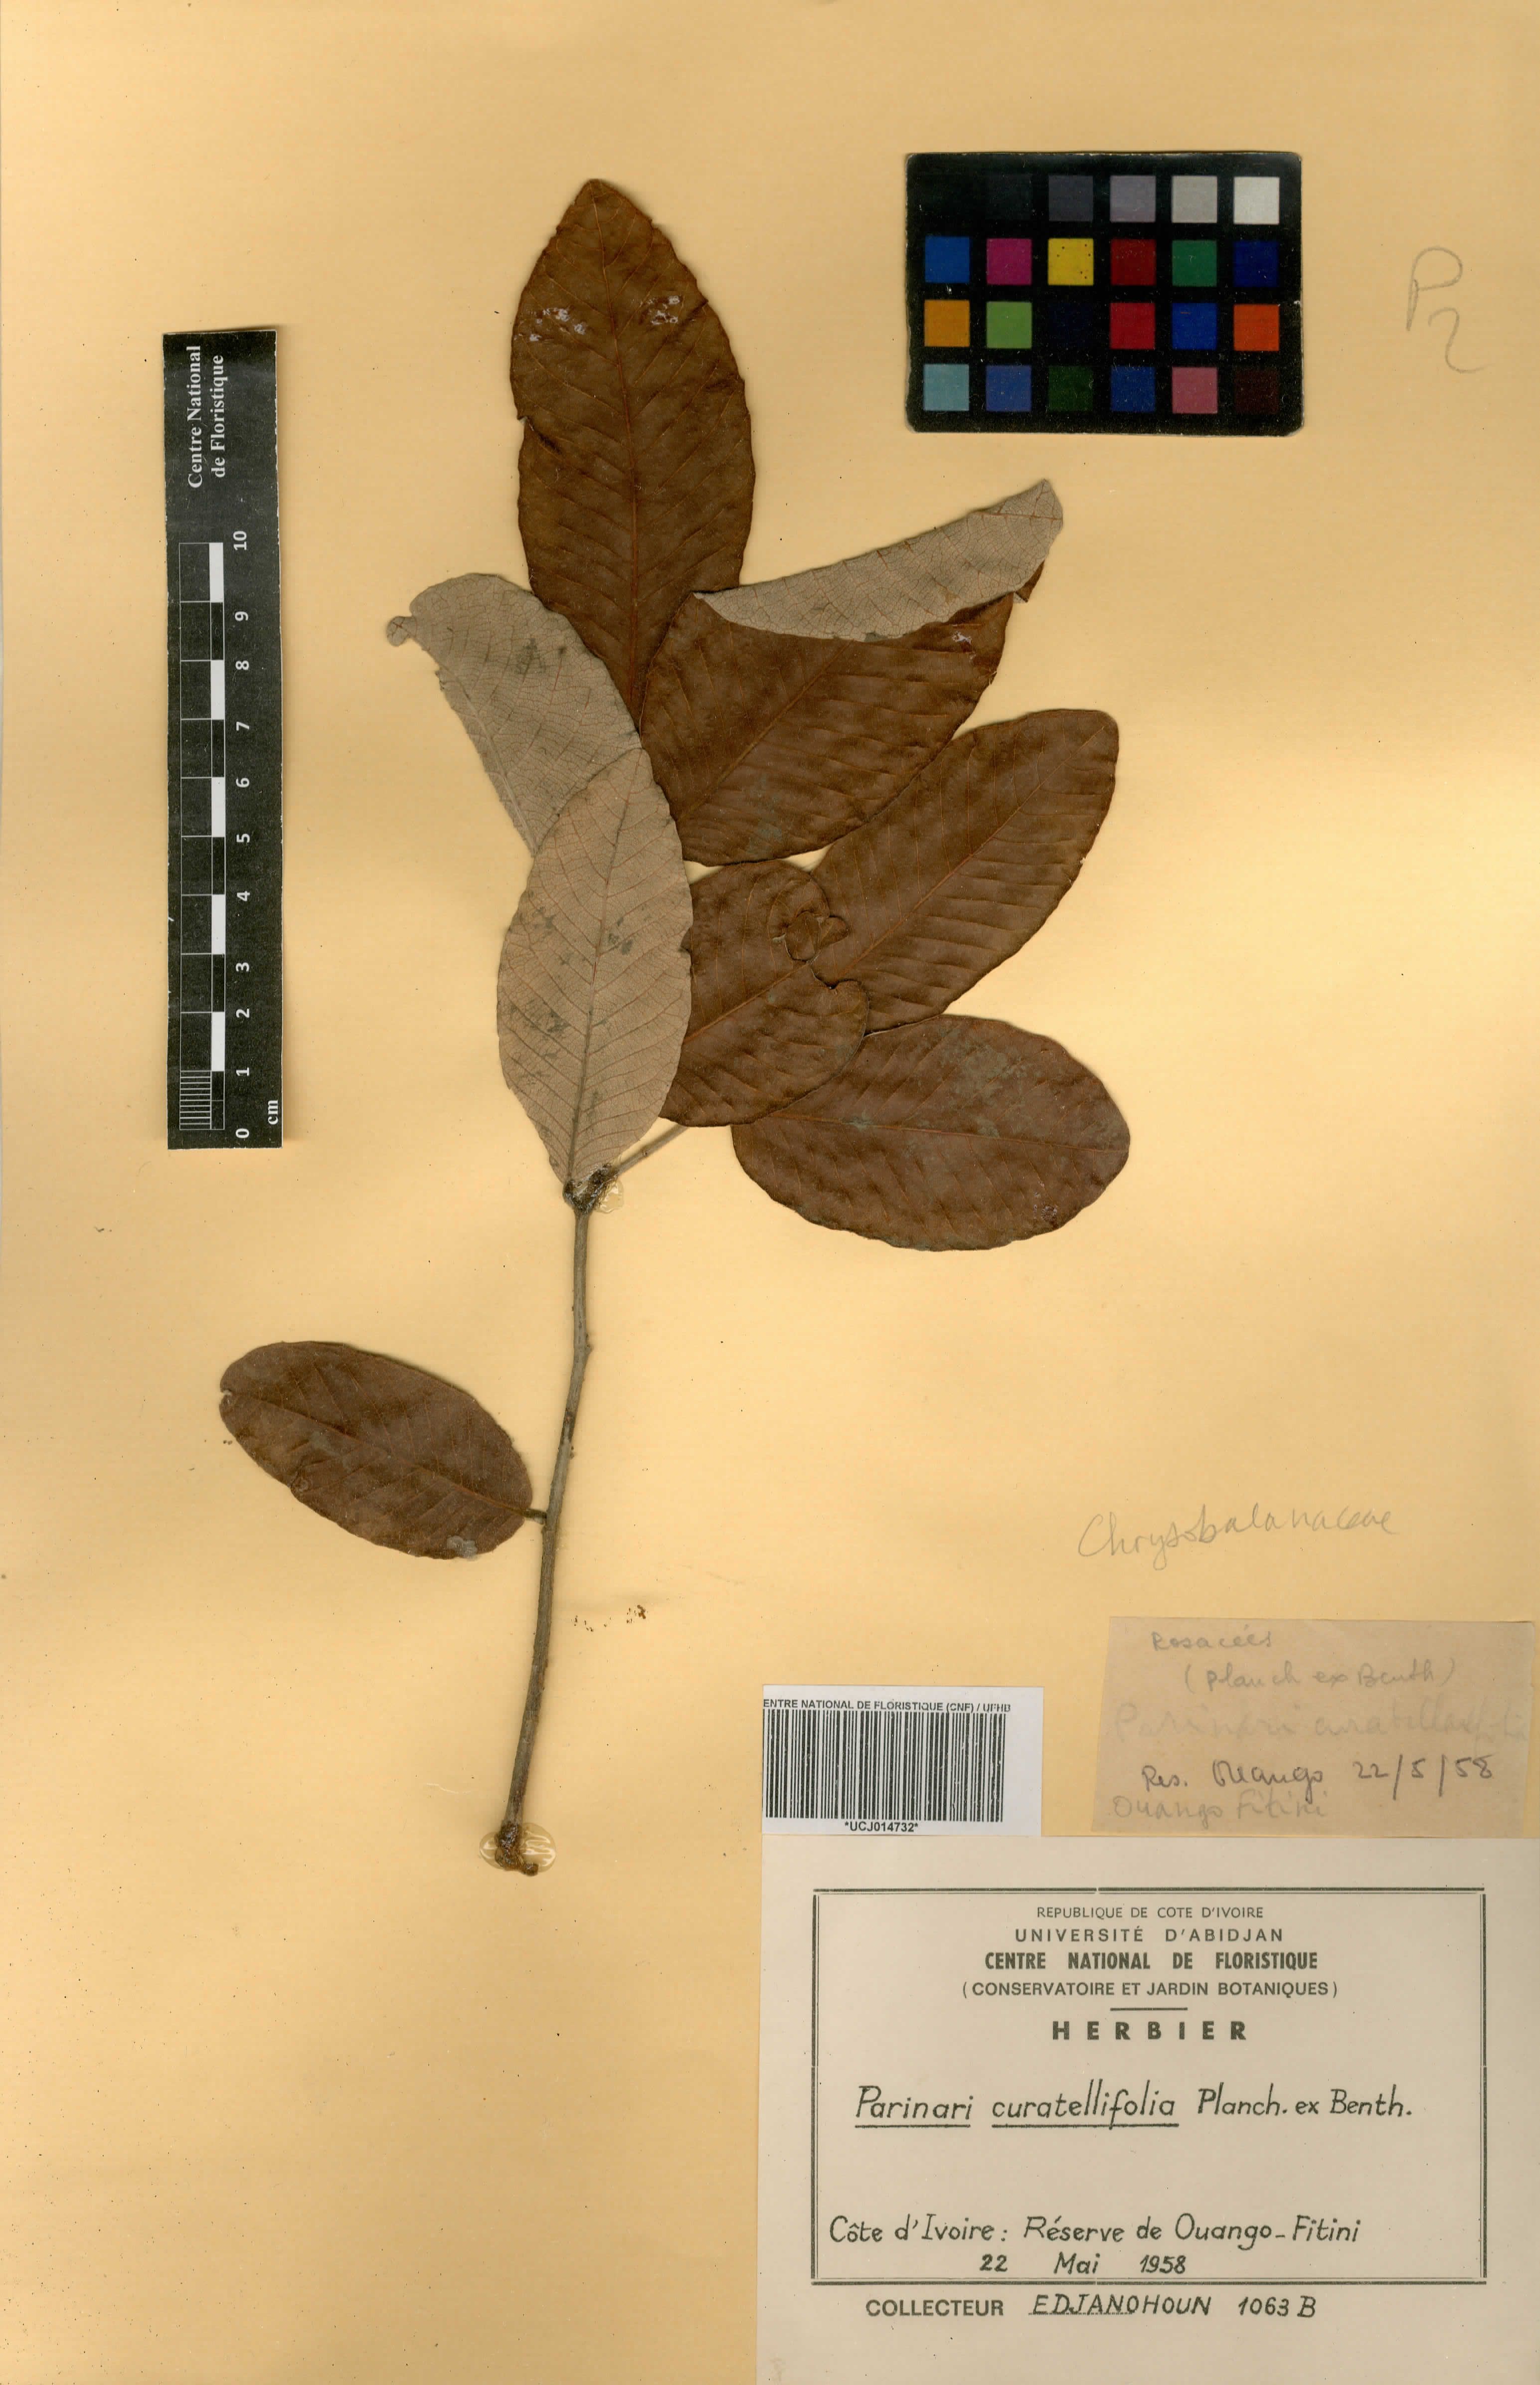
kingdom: Plantae
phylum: Tracheophyta
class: Magnoliopsida
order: Malpighiales
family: Chrysobalanaceae
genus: Parinari
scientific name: Parinari curatellifolia
